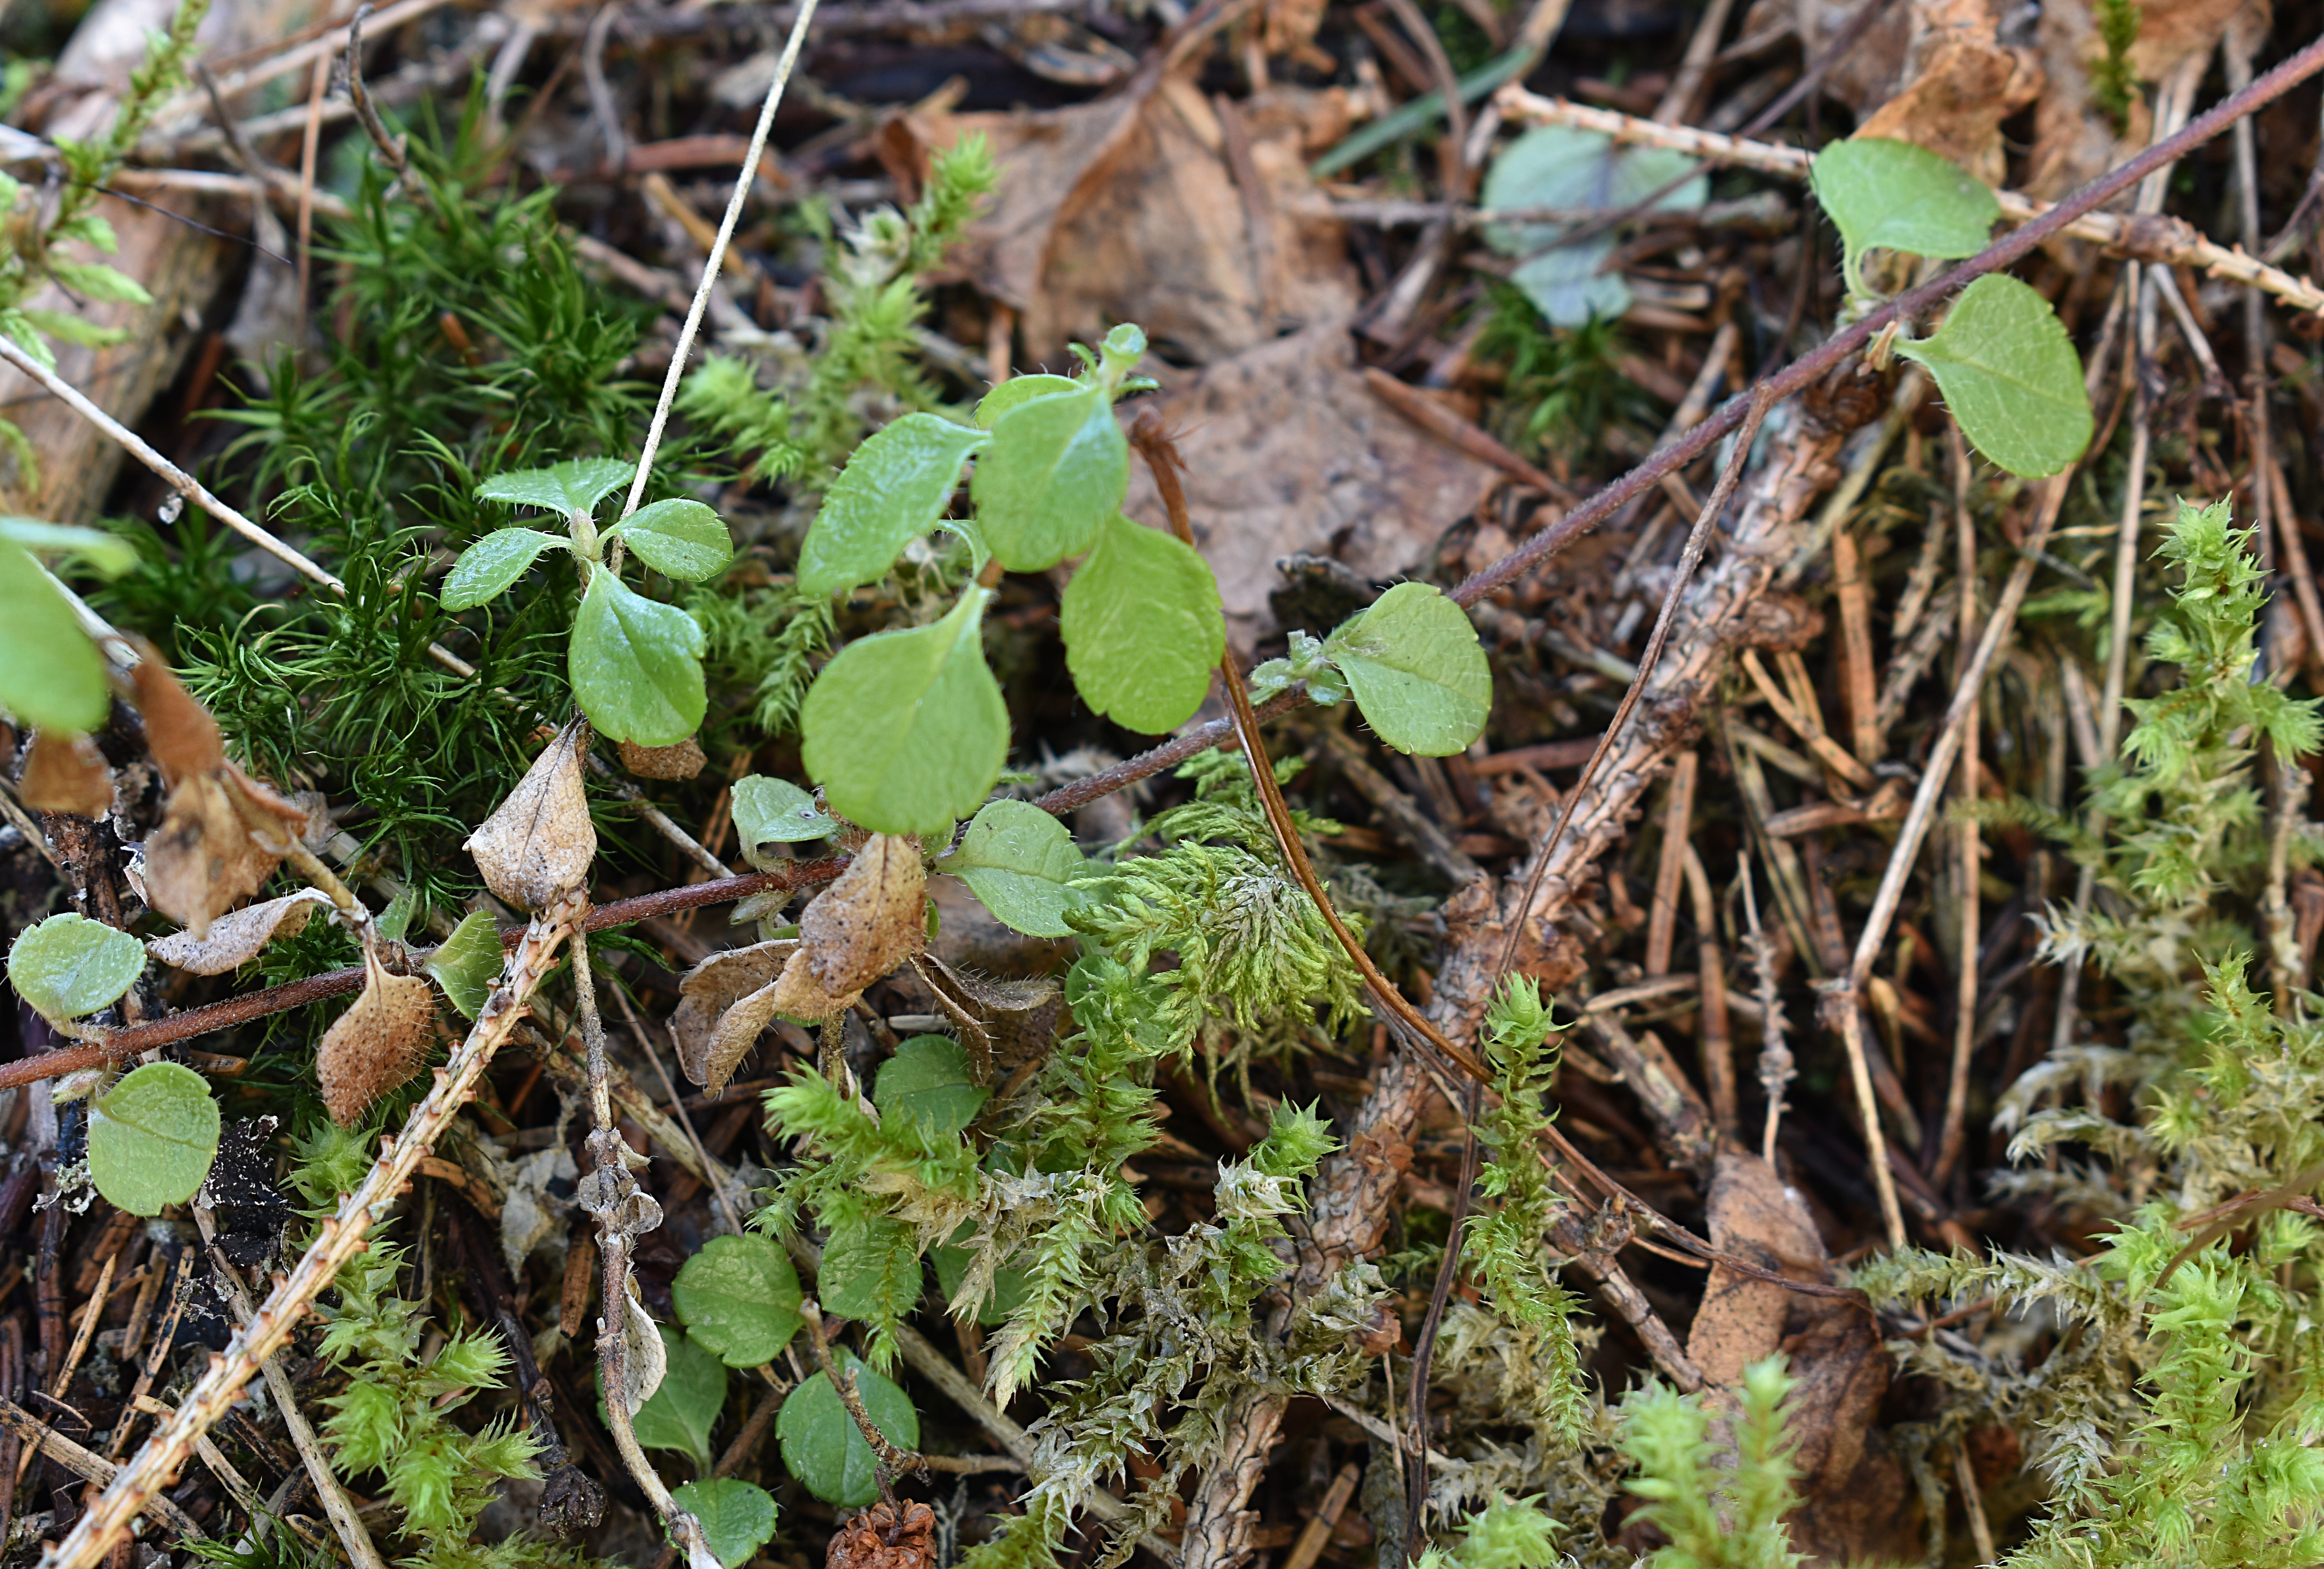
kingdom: Plantae
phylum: Tracheophyta
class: Magnoliopsida
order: Dipsacales
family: Caprifoliaceae
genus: Linnaea
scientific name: Linnaea borealis
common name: Twinflower
